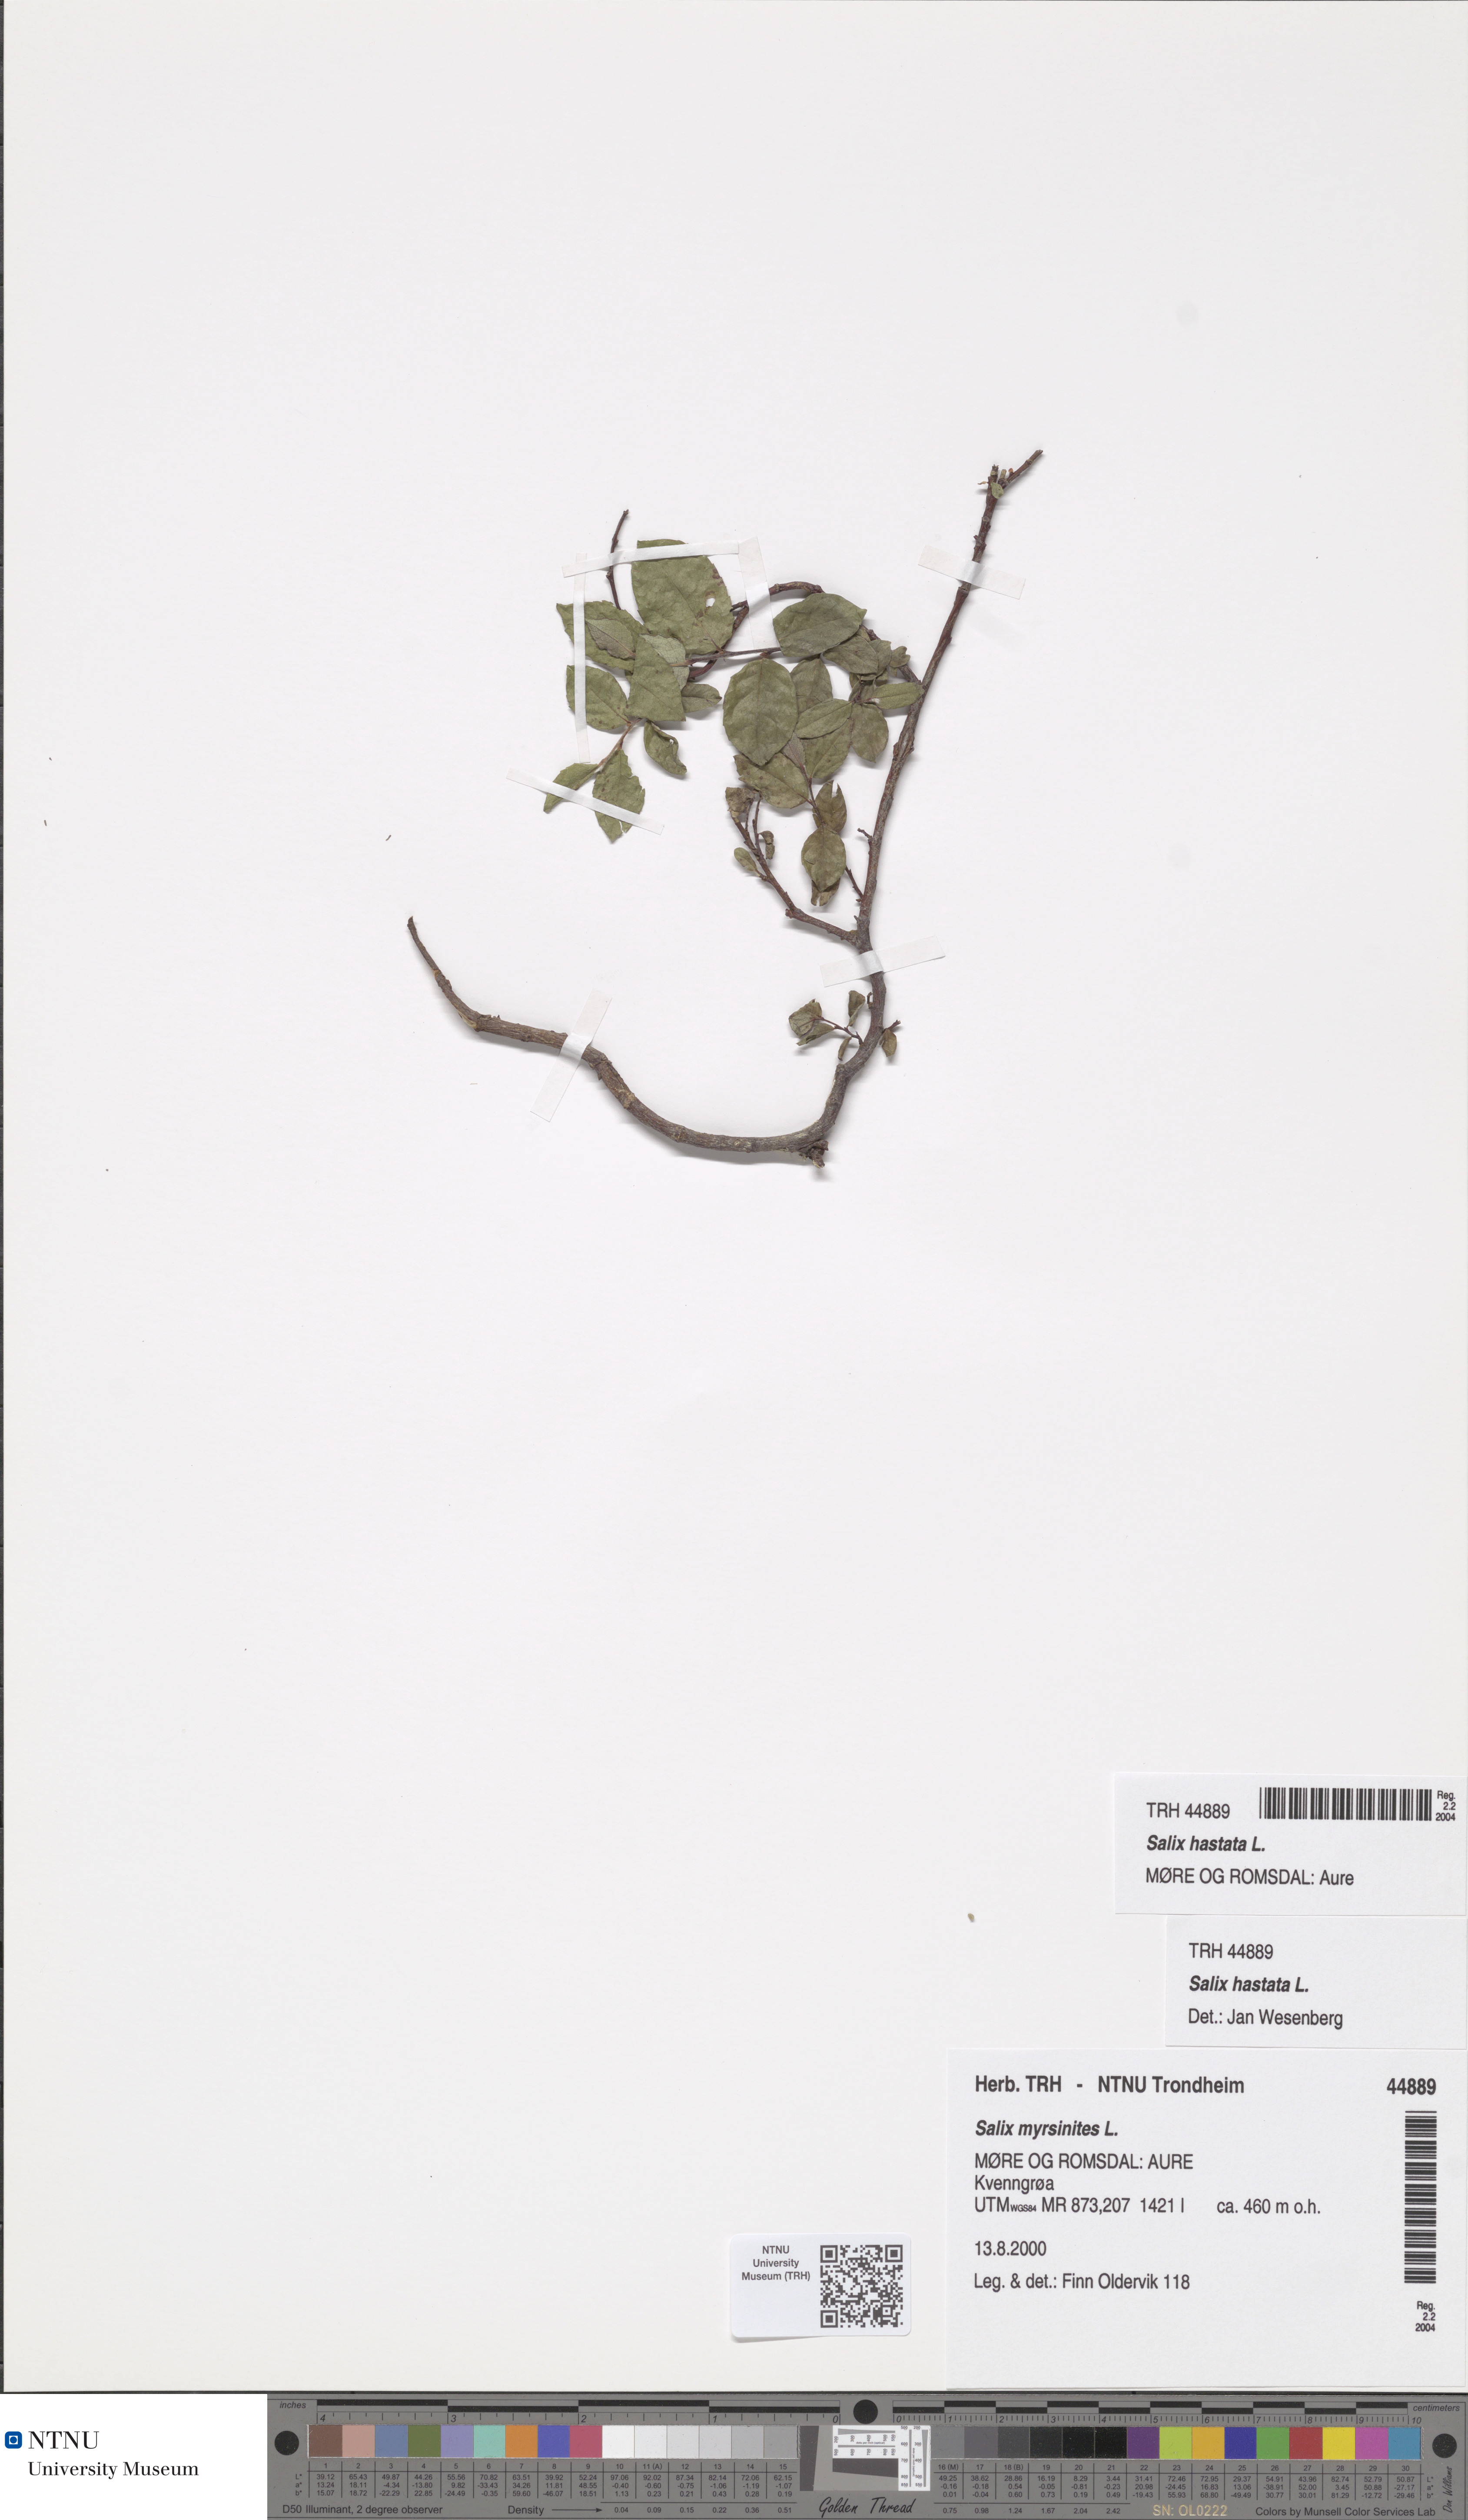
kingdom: Plantae
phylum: Tracheophyta
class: Magnoliopsida
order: Malpighiales
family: Salicaceae
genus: Salix
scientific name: Salix hastata
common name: Halberd willow
